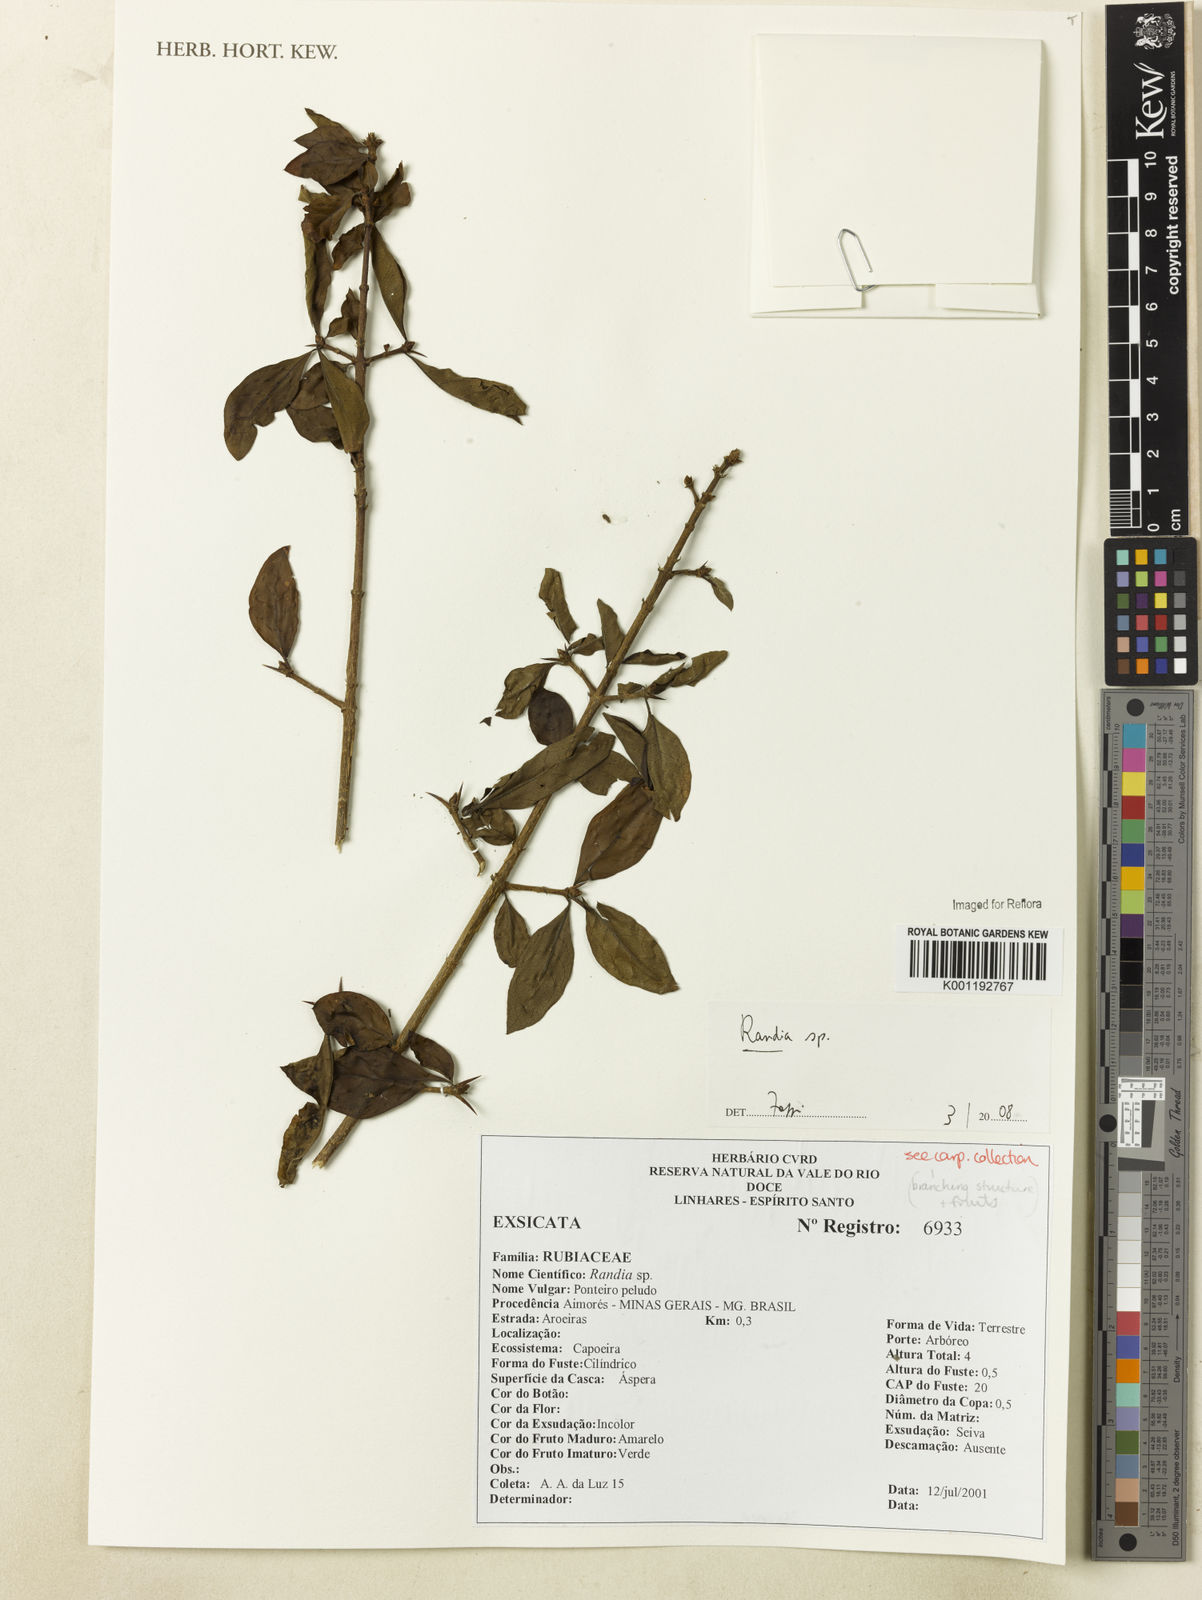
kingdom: Plantae
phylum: Tracheophyta
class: Magnoliopsida
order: Gentianales
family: Rubiaceae
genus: Randia
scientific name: Randia
